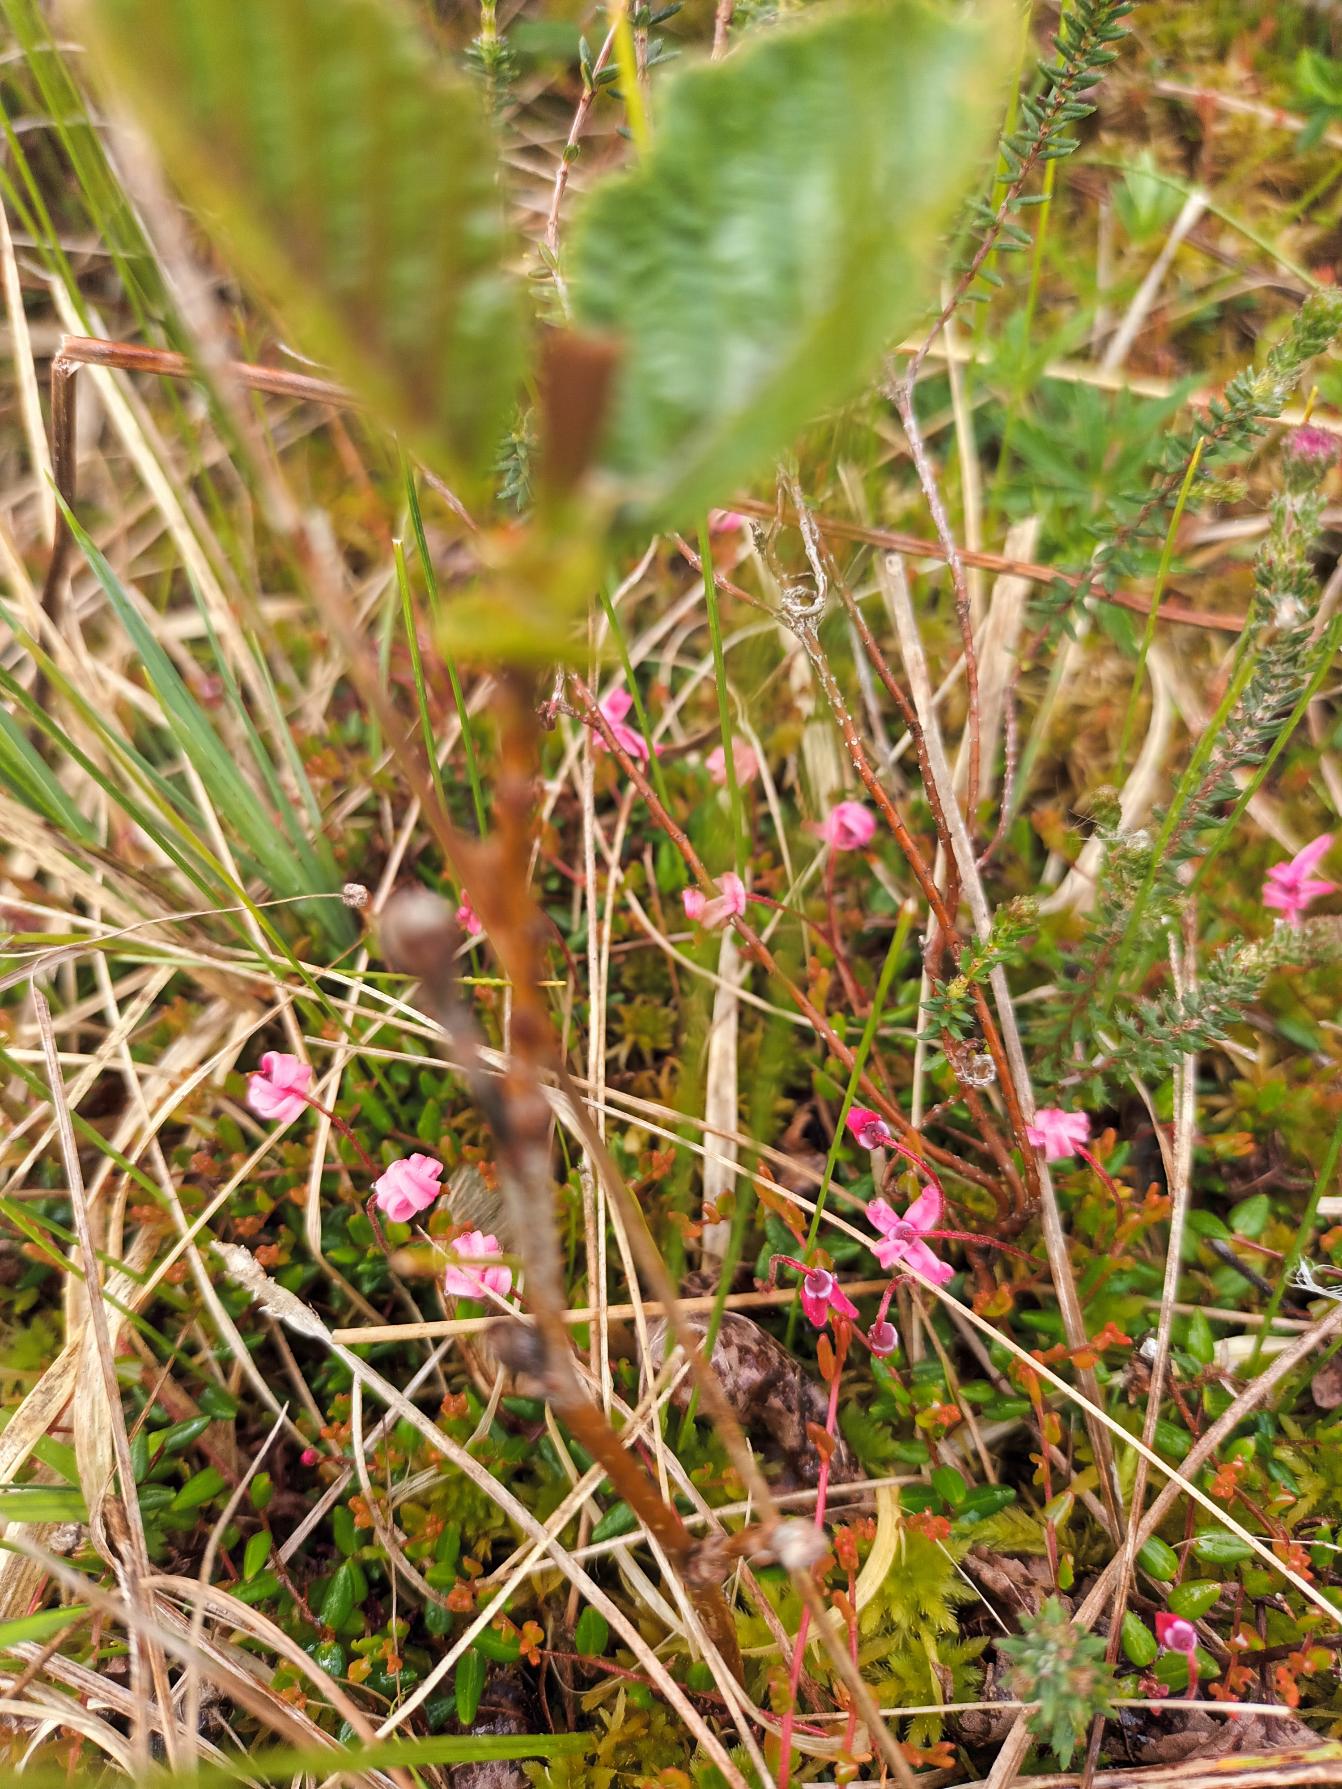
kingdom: Plantae
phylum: Tracheophyta
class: Magnoliopsida
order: Ericales
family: Ericaceae
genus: Vaccinium
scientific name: Vaccinium oxycoccos
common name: Tranebær
